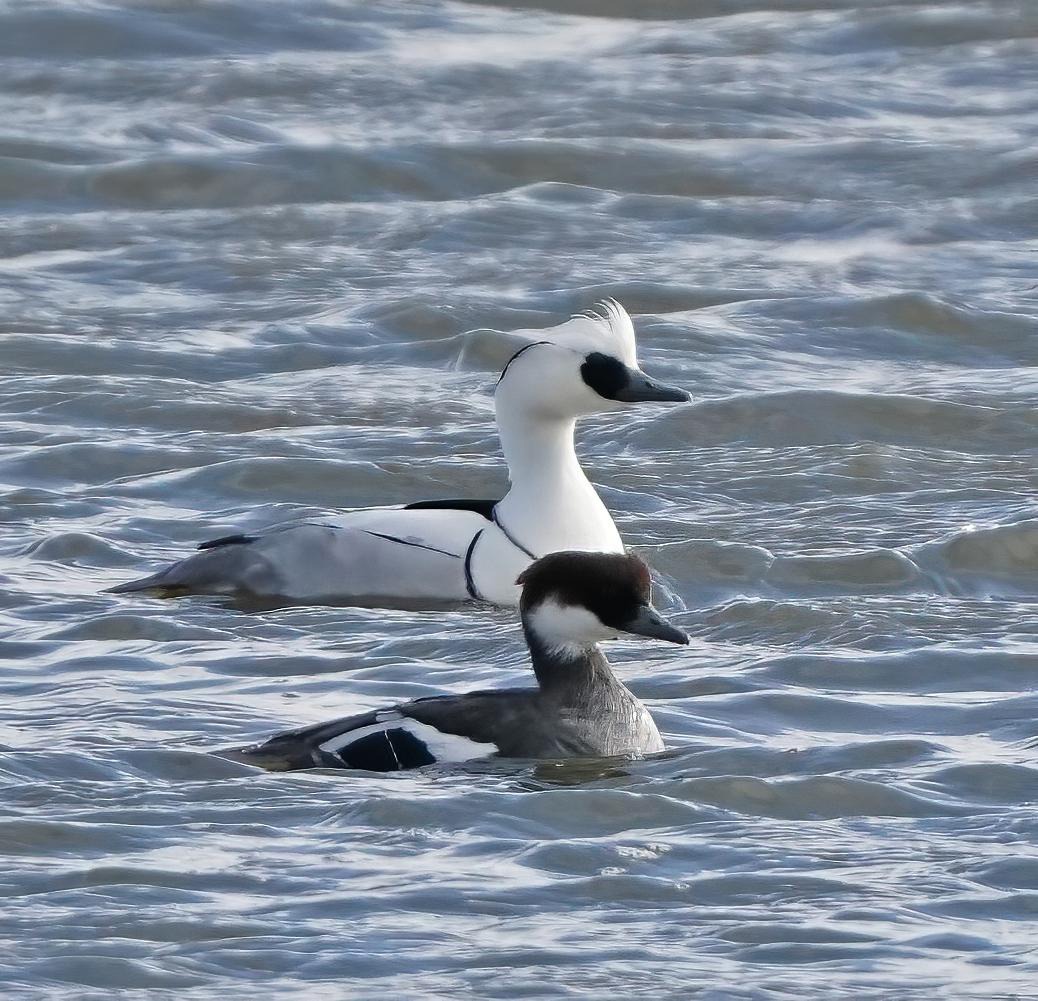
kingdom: Animalia
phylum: Chordata
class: Aves
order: Anseriformes
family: Anatidae
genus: Mergellus
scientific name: Mergellus albellus
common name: Lille skallesluger
